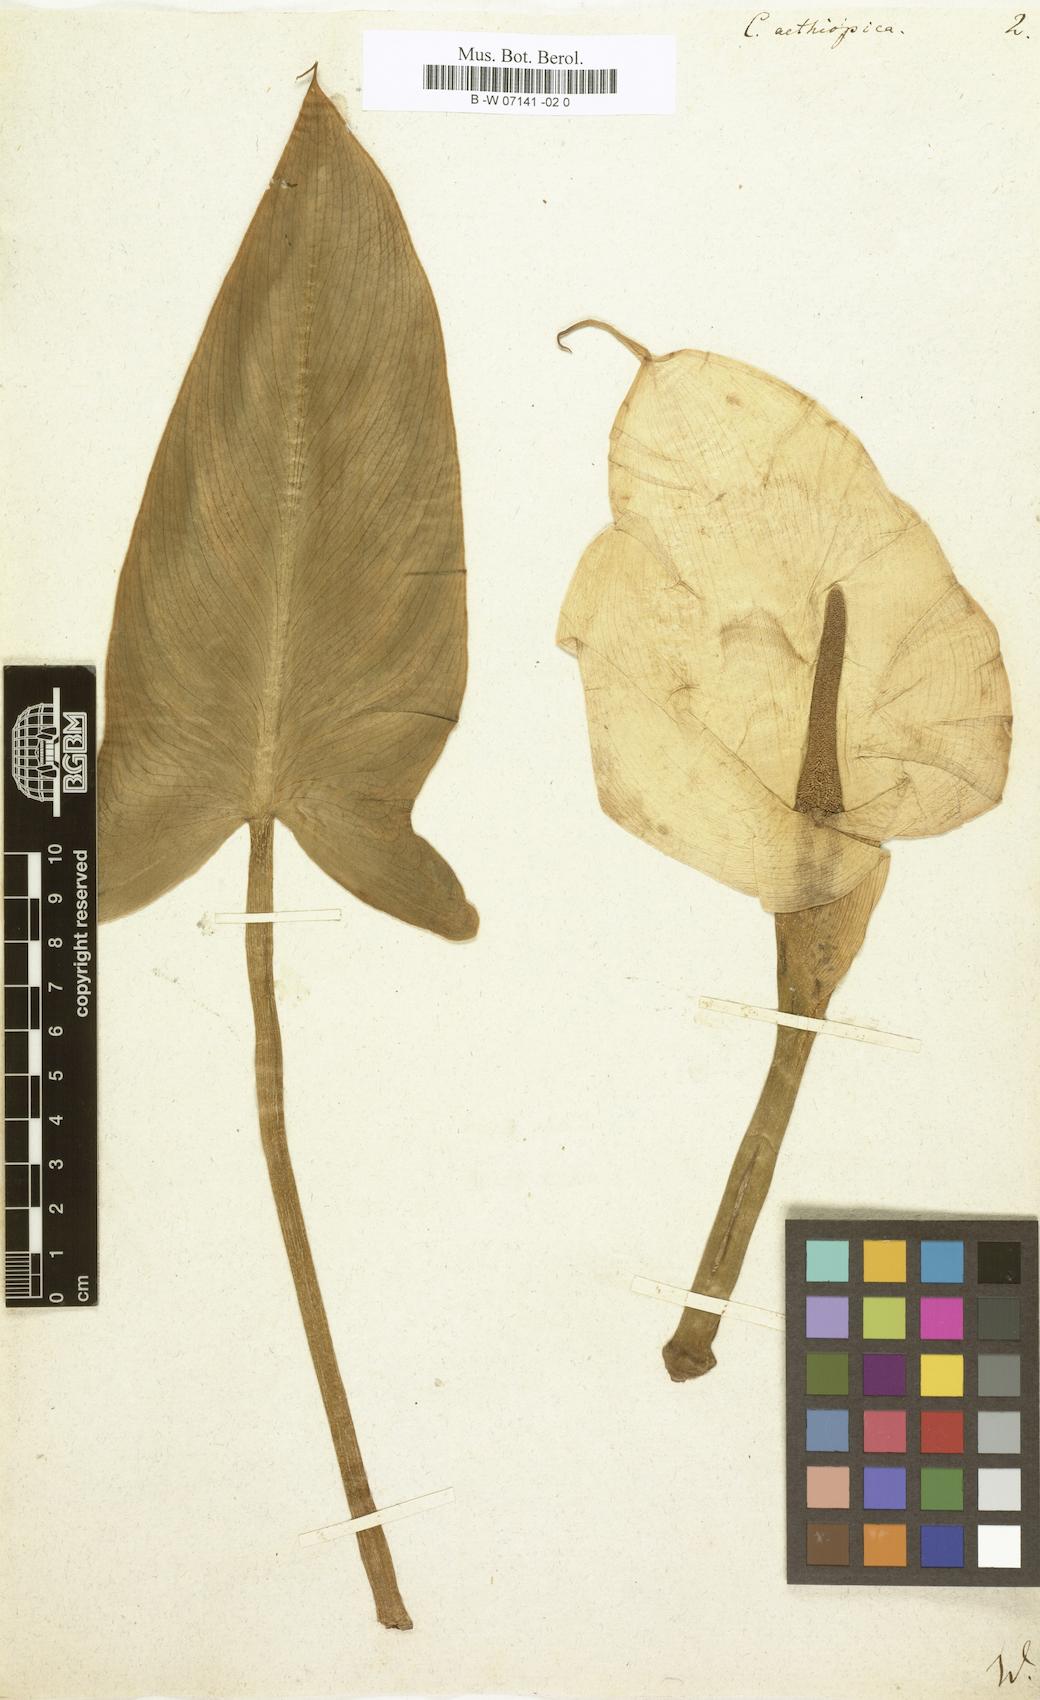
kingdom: Plantae
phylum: Tracheophyta
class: Liliopsida
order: Alismatales
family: Araceae
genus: Calla
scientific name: Calla aethiopica
